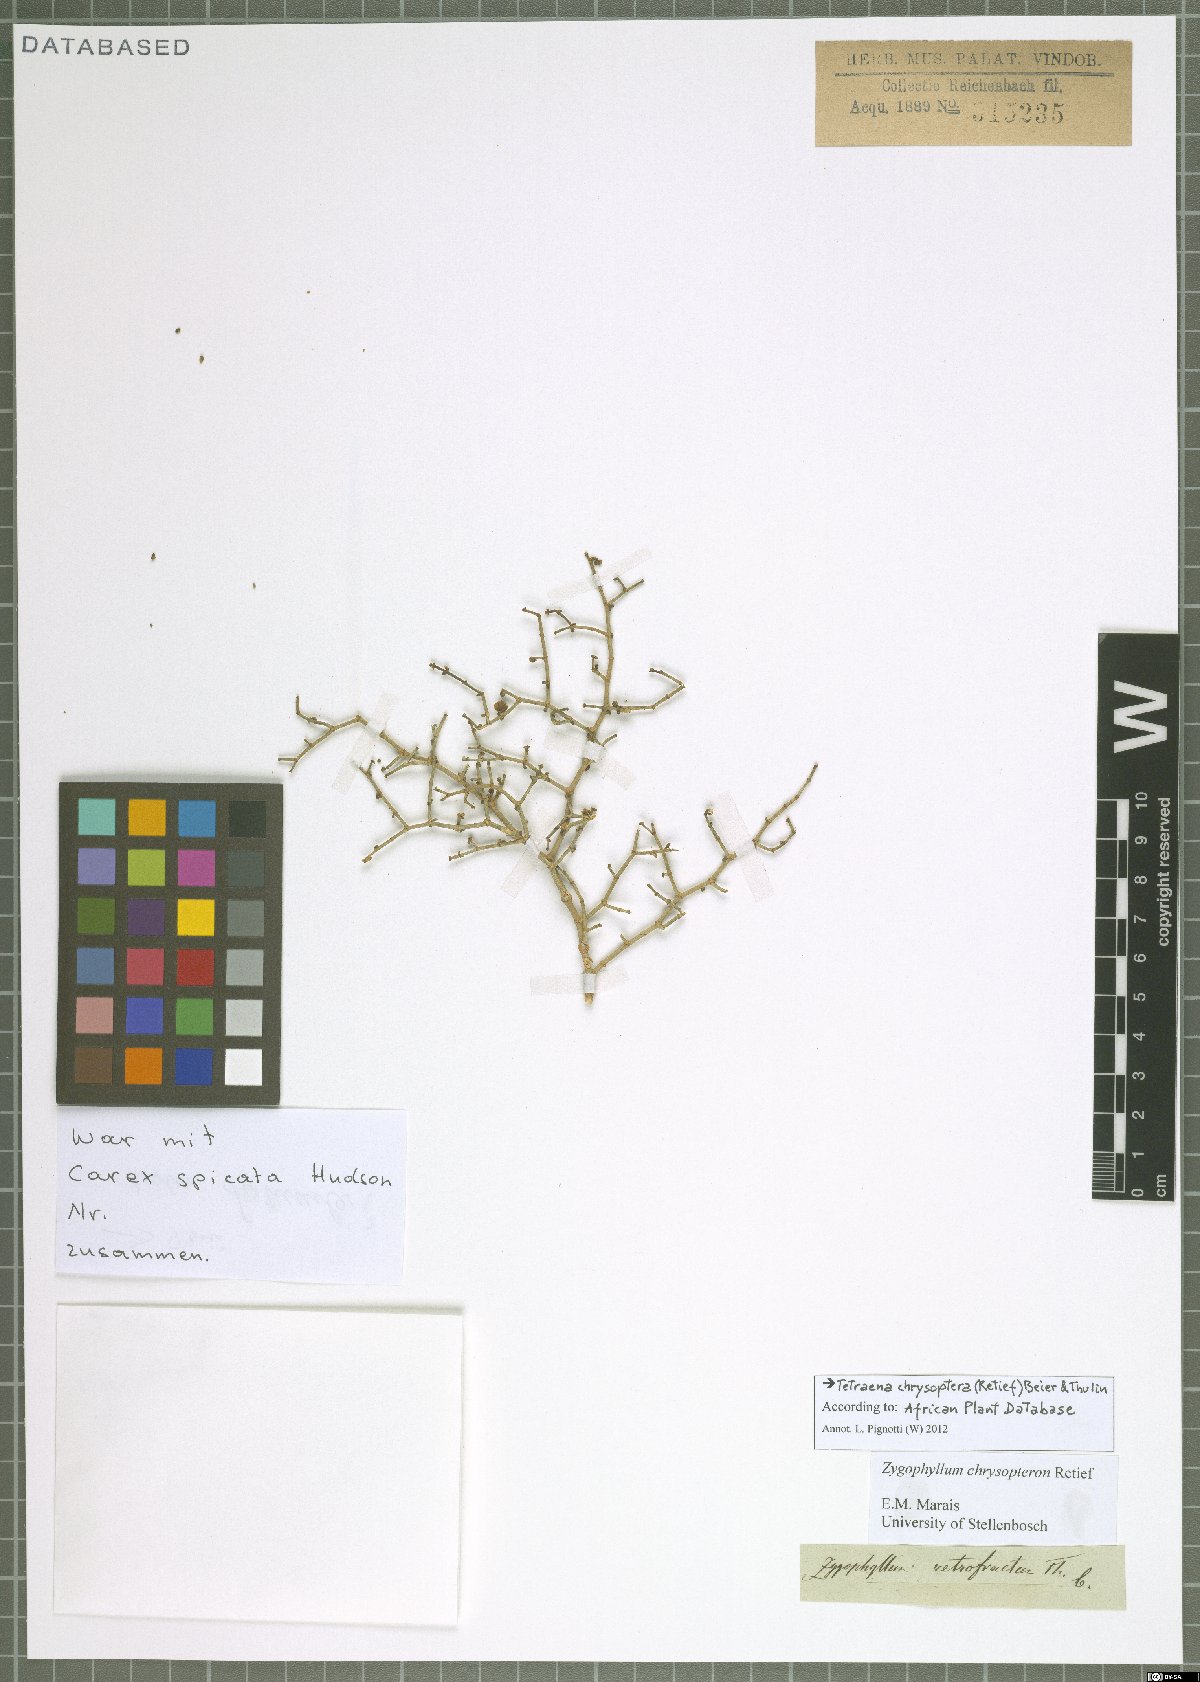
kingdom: Plantae
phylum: Tracheophyta
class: Magnoliopsida
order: Zygophyllales
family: Zygophyllaceae
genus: Tetraena
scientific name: Tetraena chrysopteros
